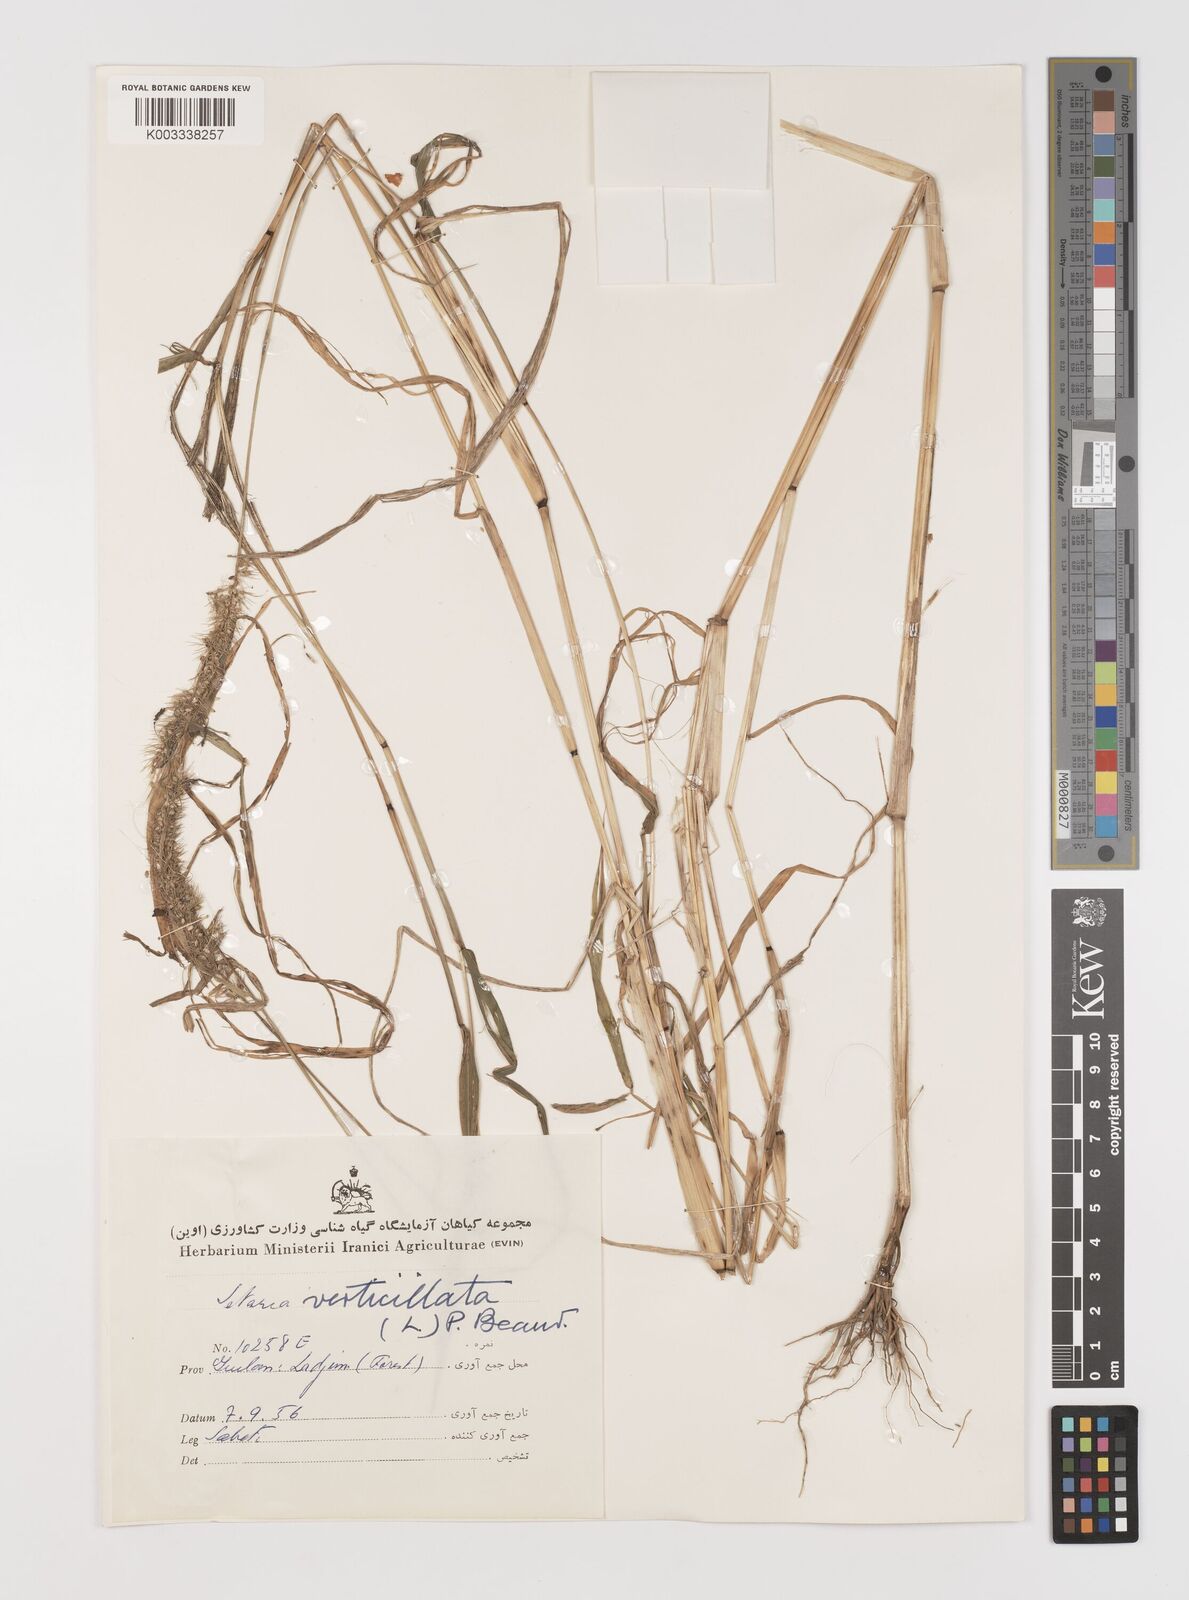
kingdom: Plantae
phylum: Tracheophyta
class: Liliopsida
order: Poales
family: Poaceae
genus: Setaria
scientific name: Setaria verticillata
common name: Hooked bristlegrass
